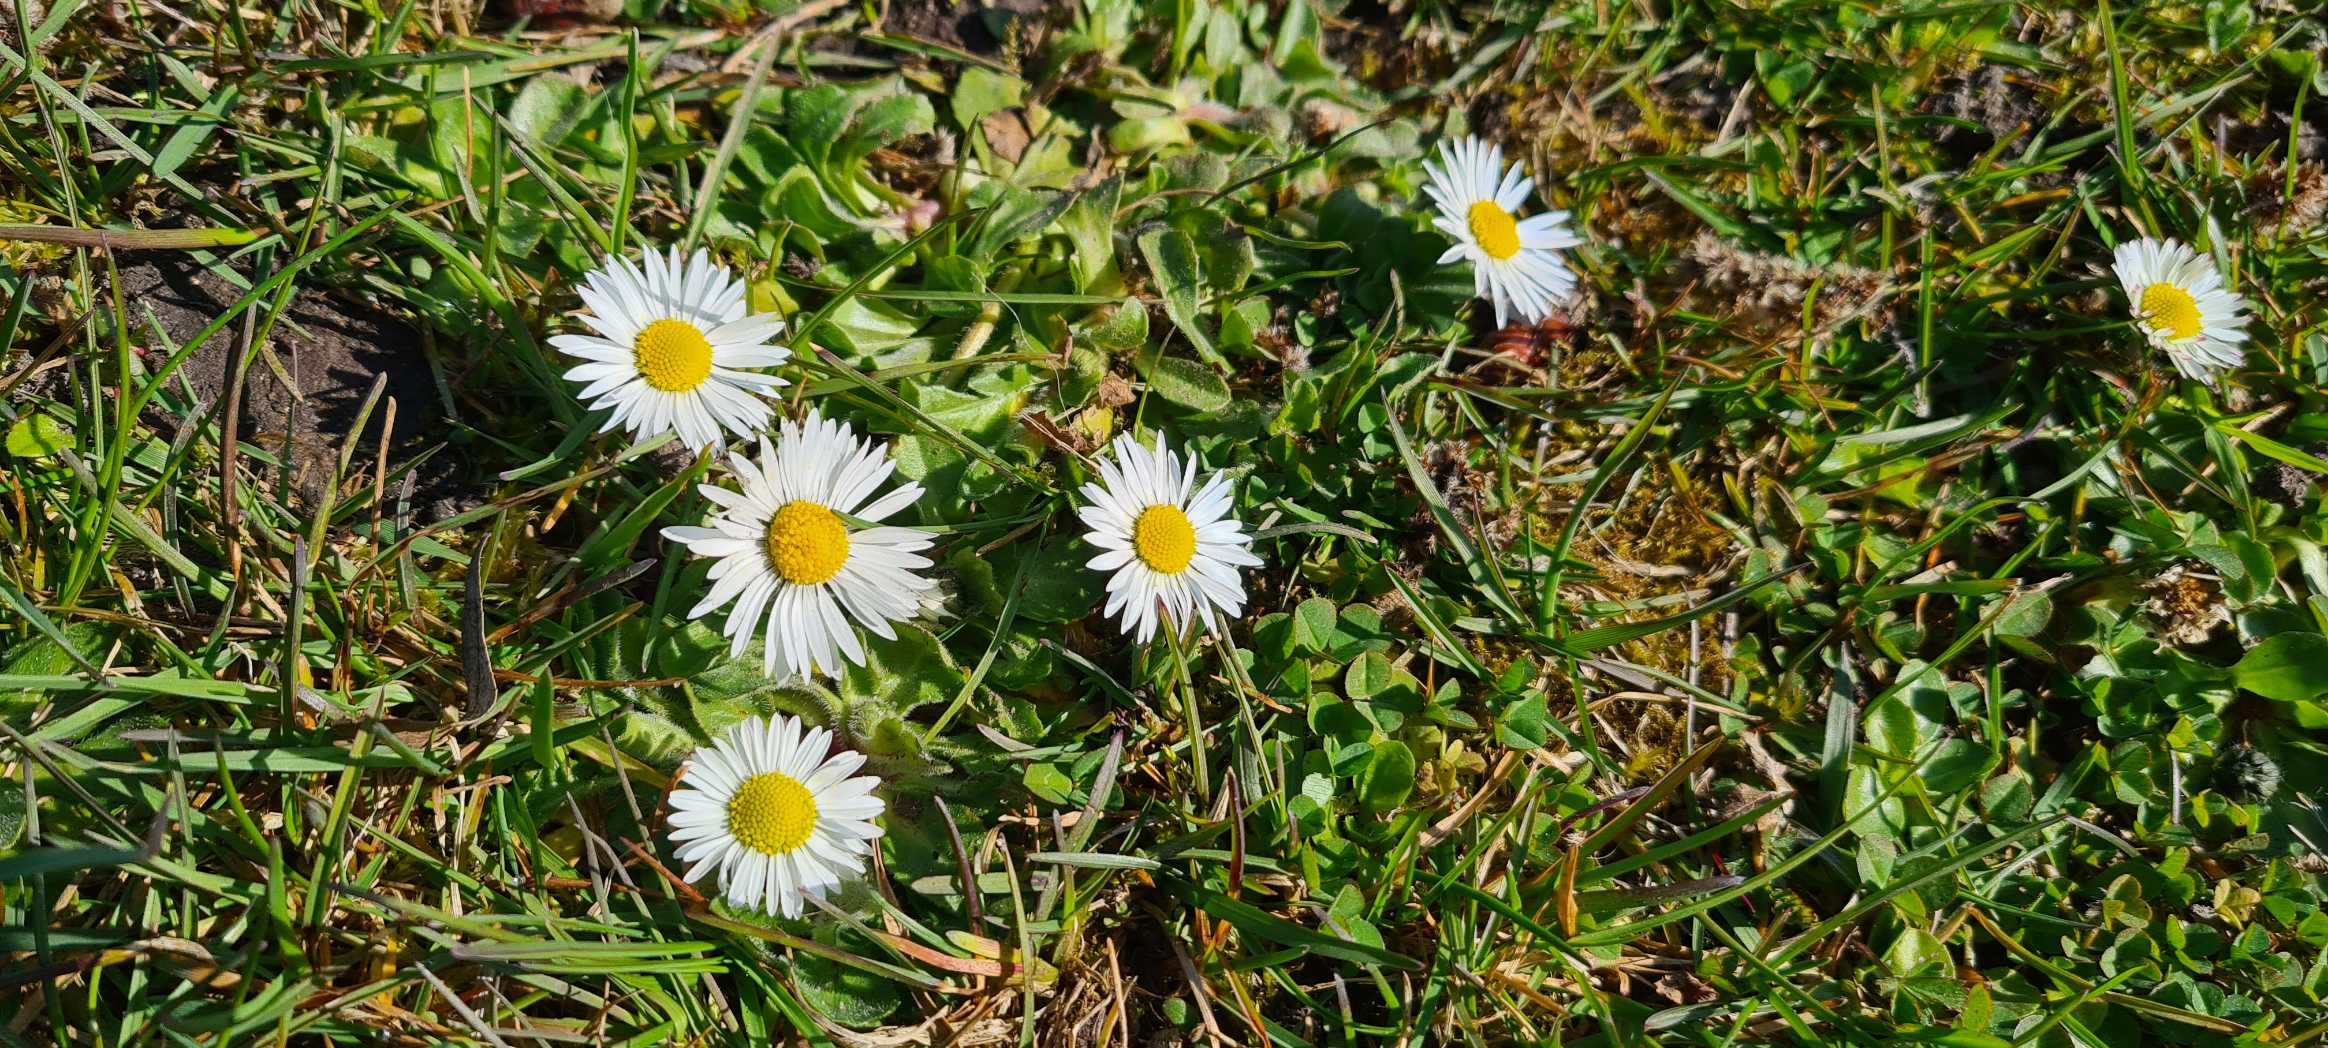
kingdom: Plantae
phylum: Tracheophyta
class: Magnoliopsida
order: Asterales
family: Asteraceae
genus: Bellis
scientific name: Bellis perennis
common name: Tusindfryd
